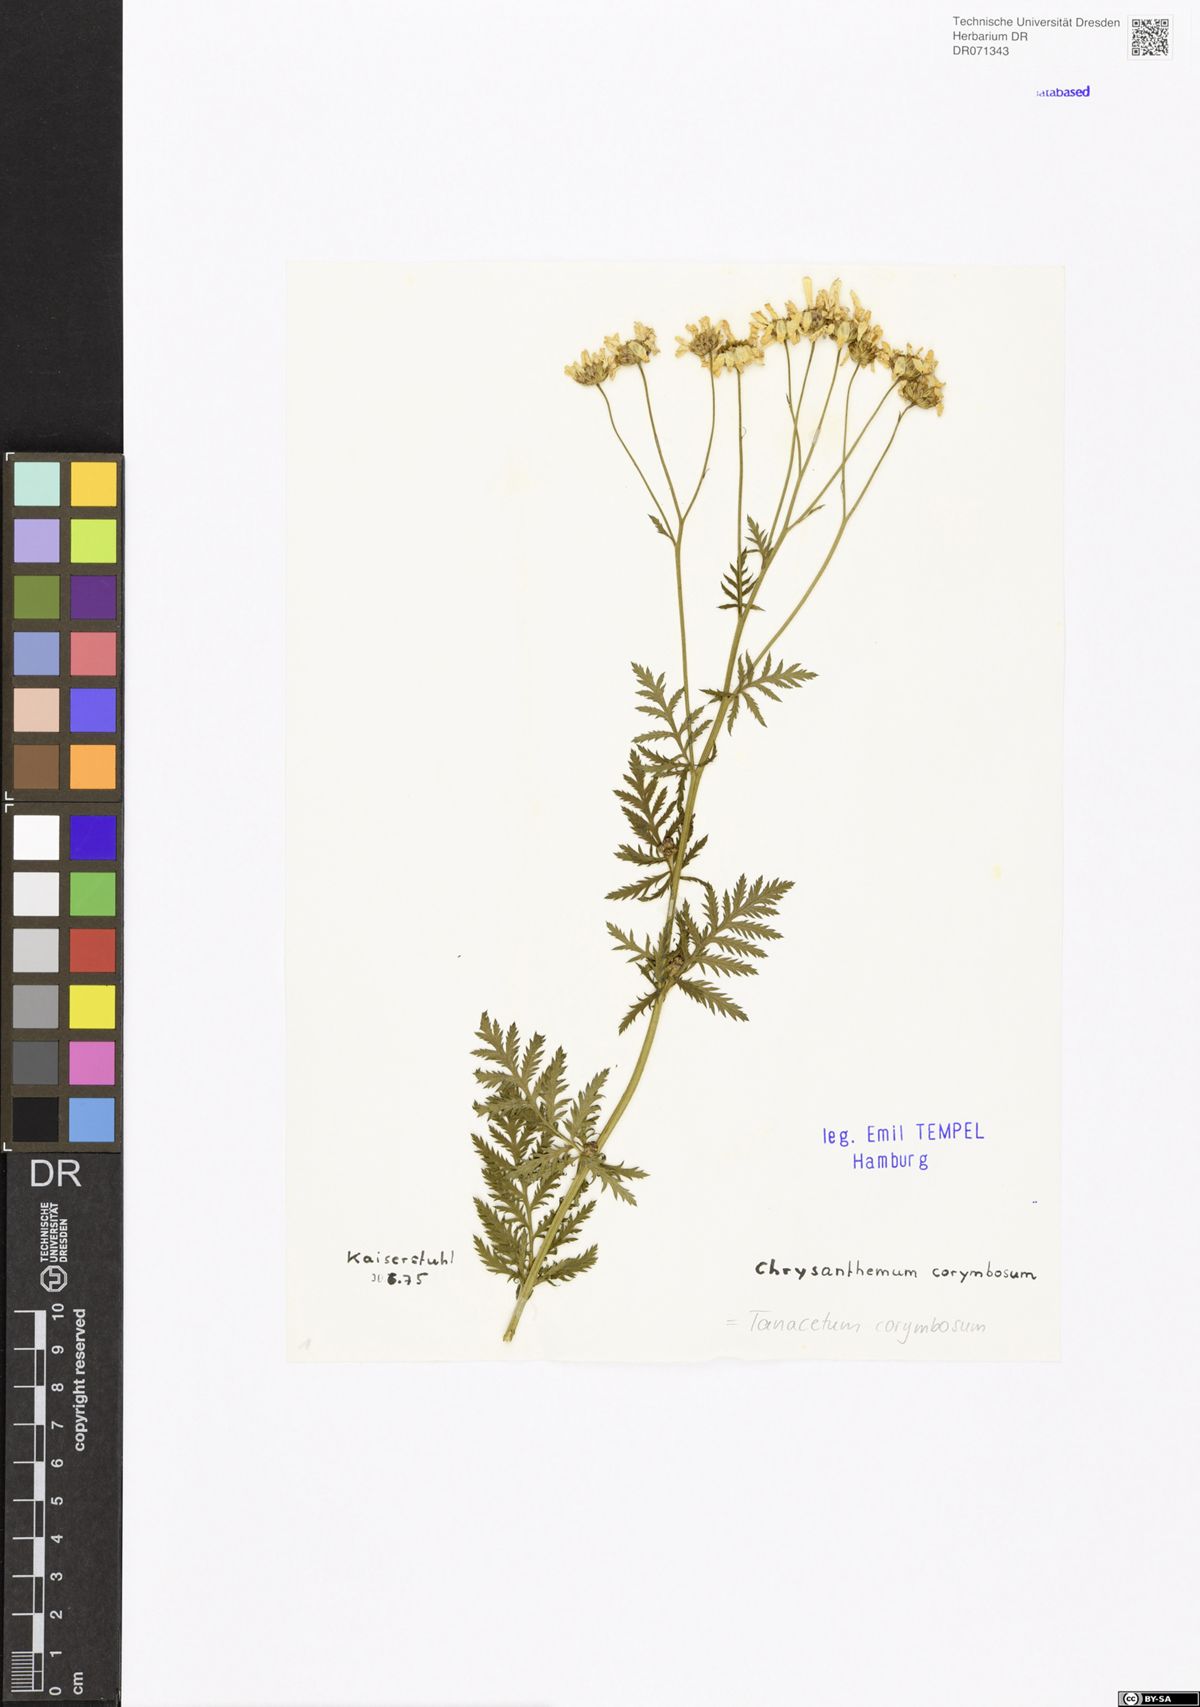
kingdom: Plantae
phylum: Tracheophyta
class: Magnoliopsida
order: Asterales
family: Asteraceae
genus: Tanacetum
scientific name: Tanacetum corymbosum
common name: Scentless feverfew
